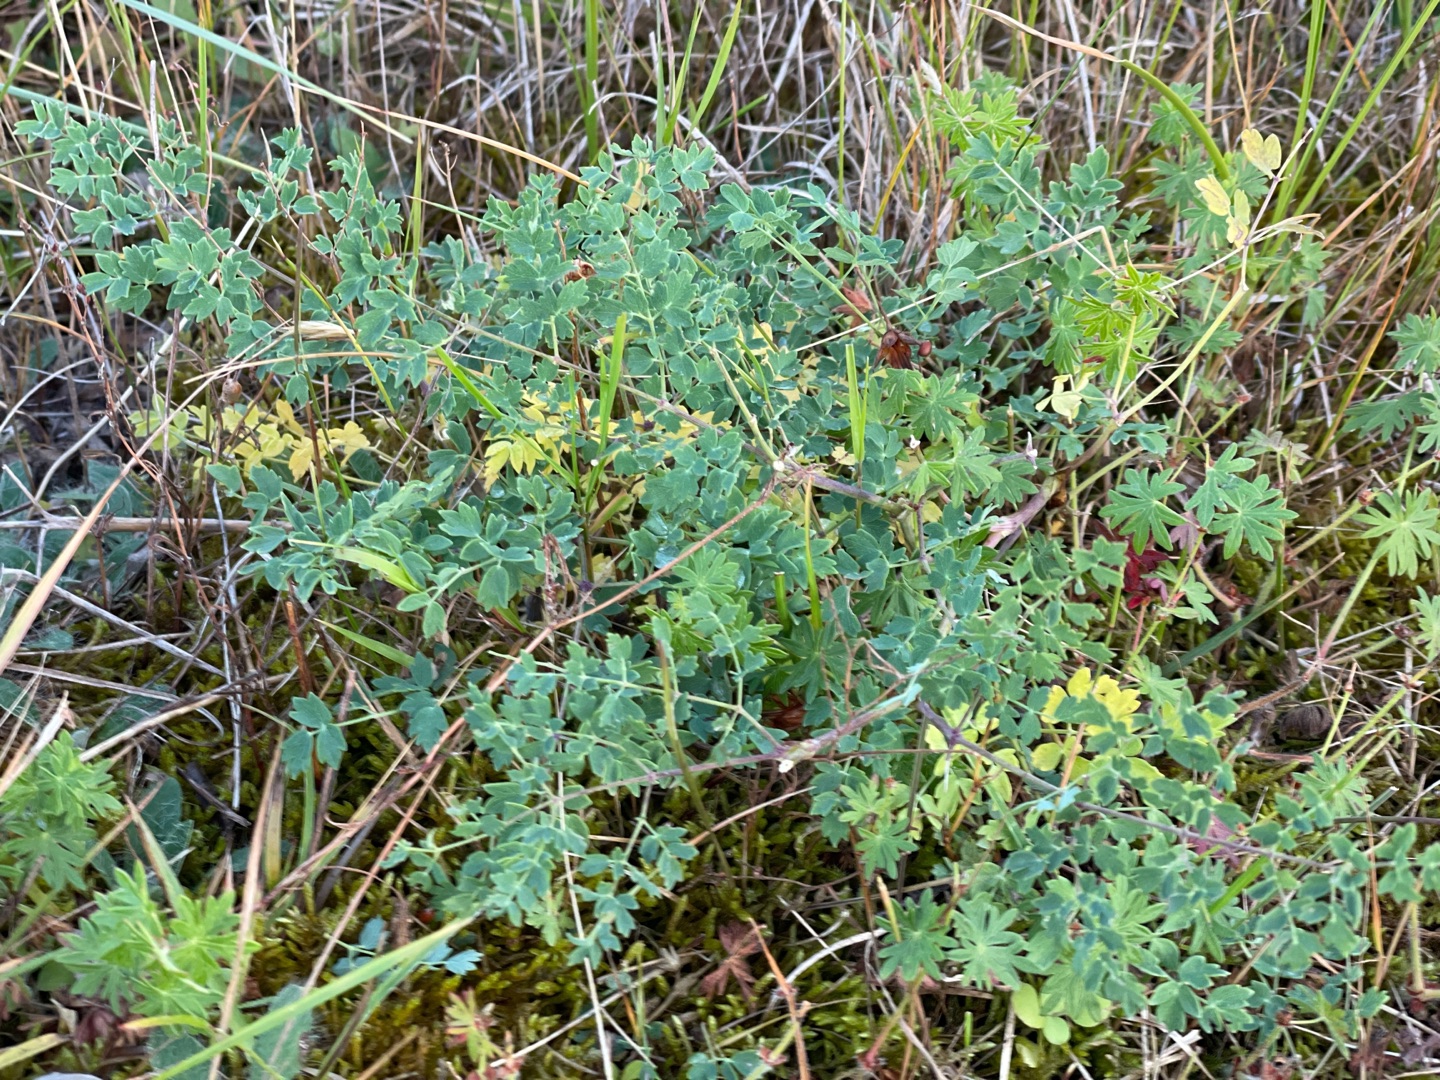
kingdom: Plantae
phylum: Tracheophyta
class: Magnoliopsida
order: Ranunculales
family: Ranunculaceae
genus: Thalictrum
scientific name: Thalictrum minus
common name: Sand-frøstjerne
